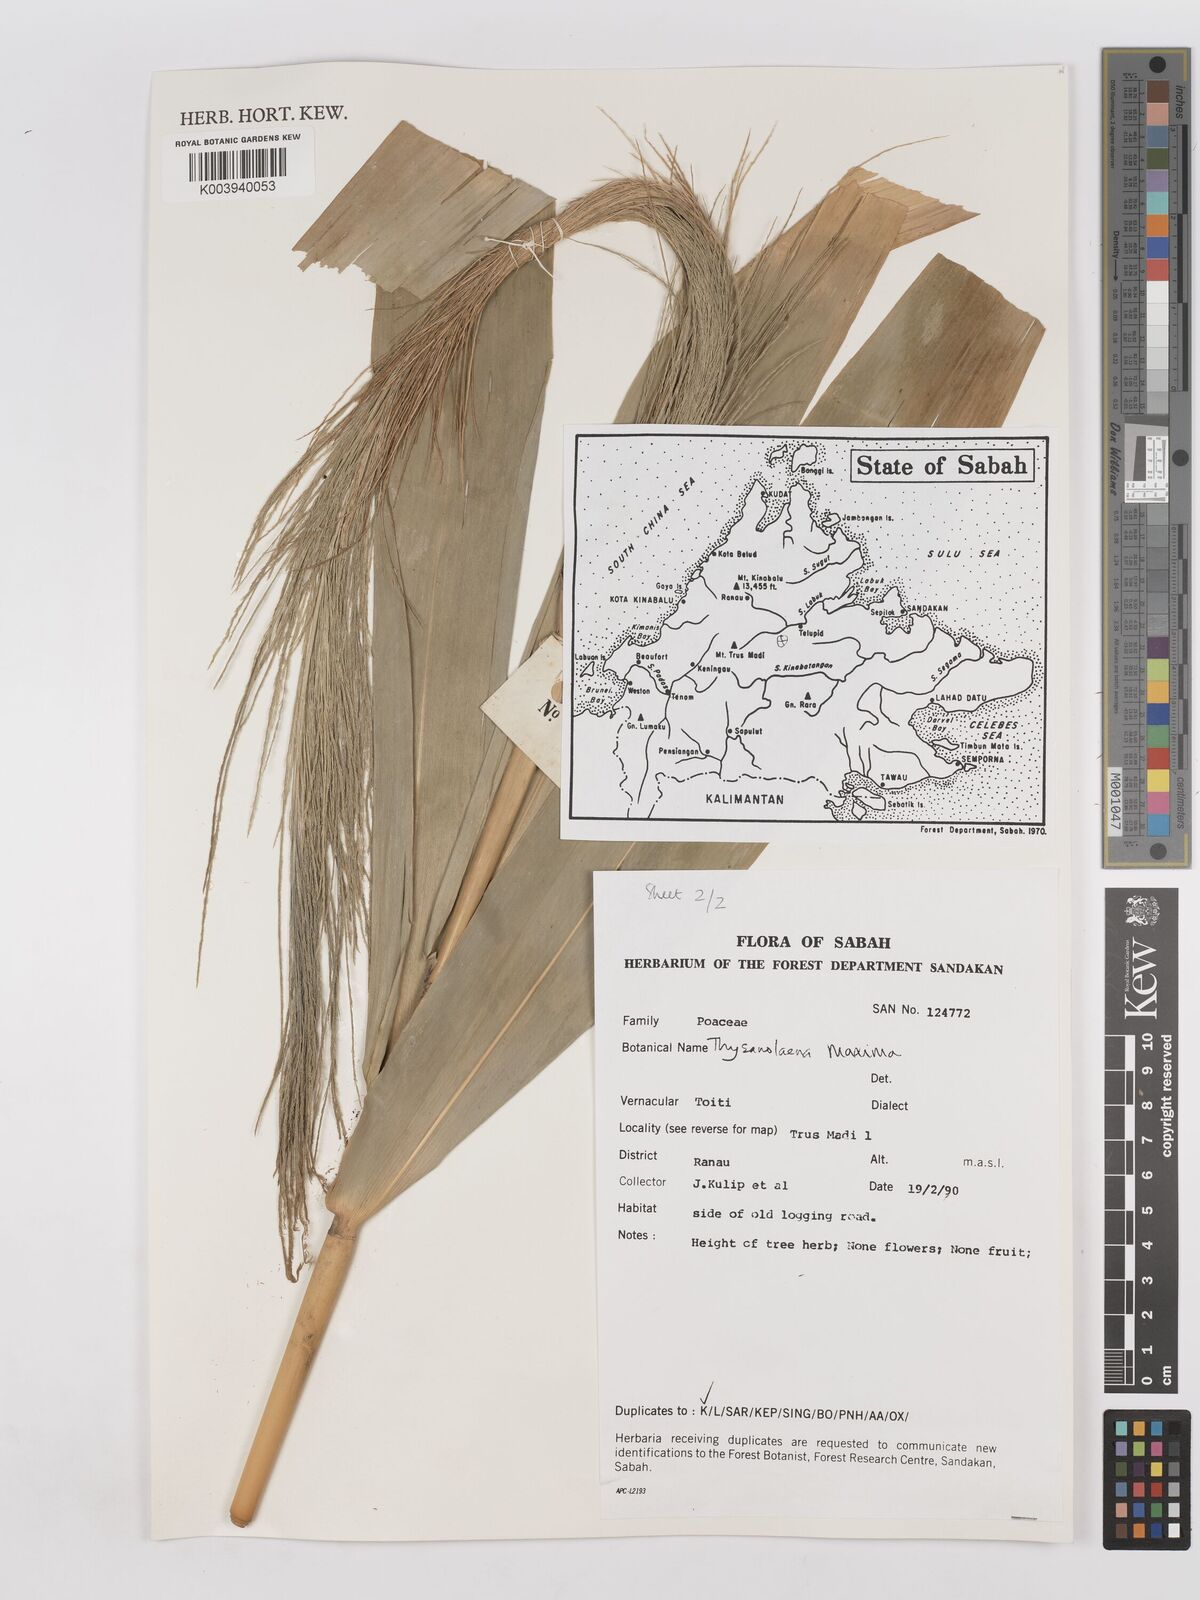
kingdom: Plantae
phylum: Tracheophyta
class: Liliopsida
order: Poales
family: Poaceae
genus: Thysanolaena
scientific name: Thysanolaena latifolia
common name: Tiger grass
